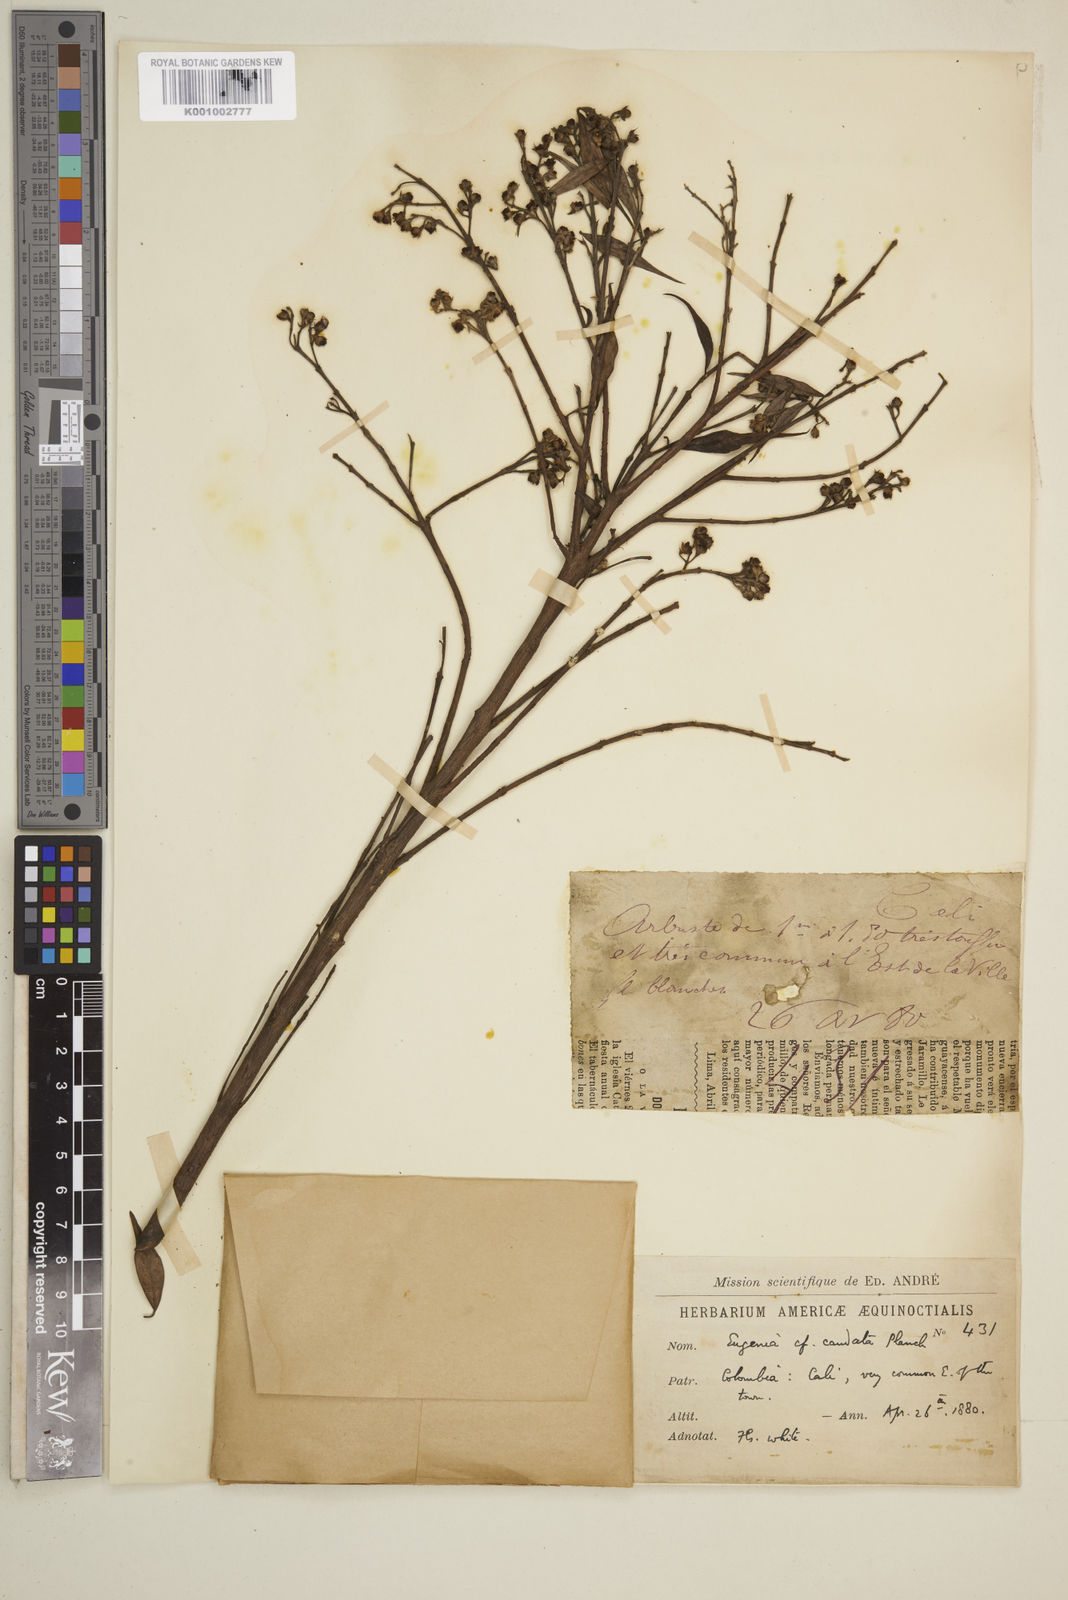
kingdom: Plantae
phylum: Tracheophyta
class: Magnoliopsida
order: Myrtales
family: Myrtaceae
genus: Syzygium
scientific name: Syzygium urophyllum
